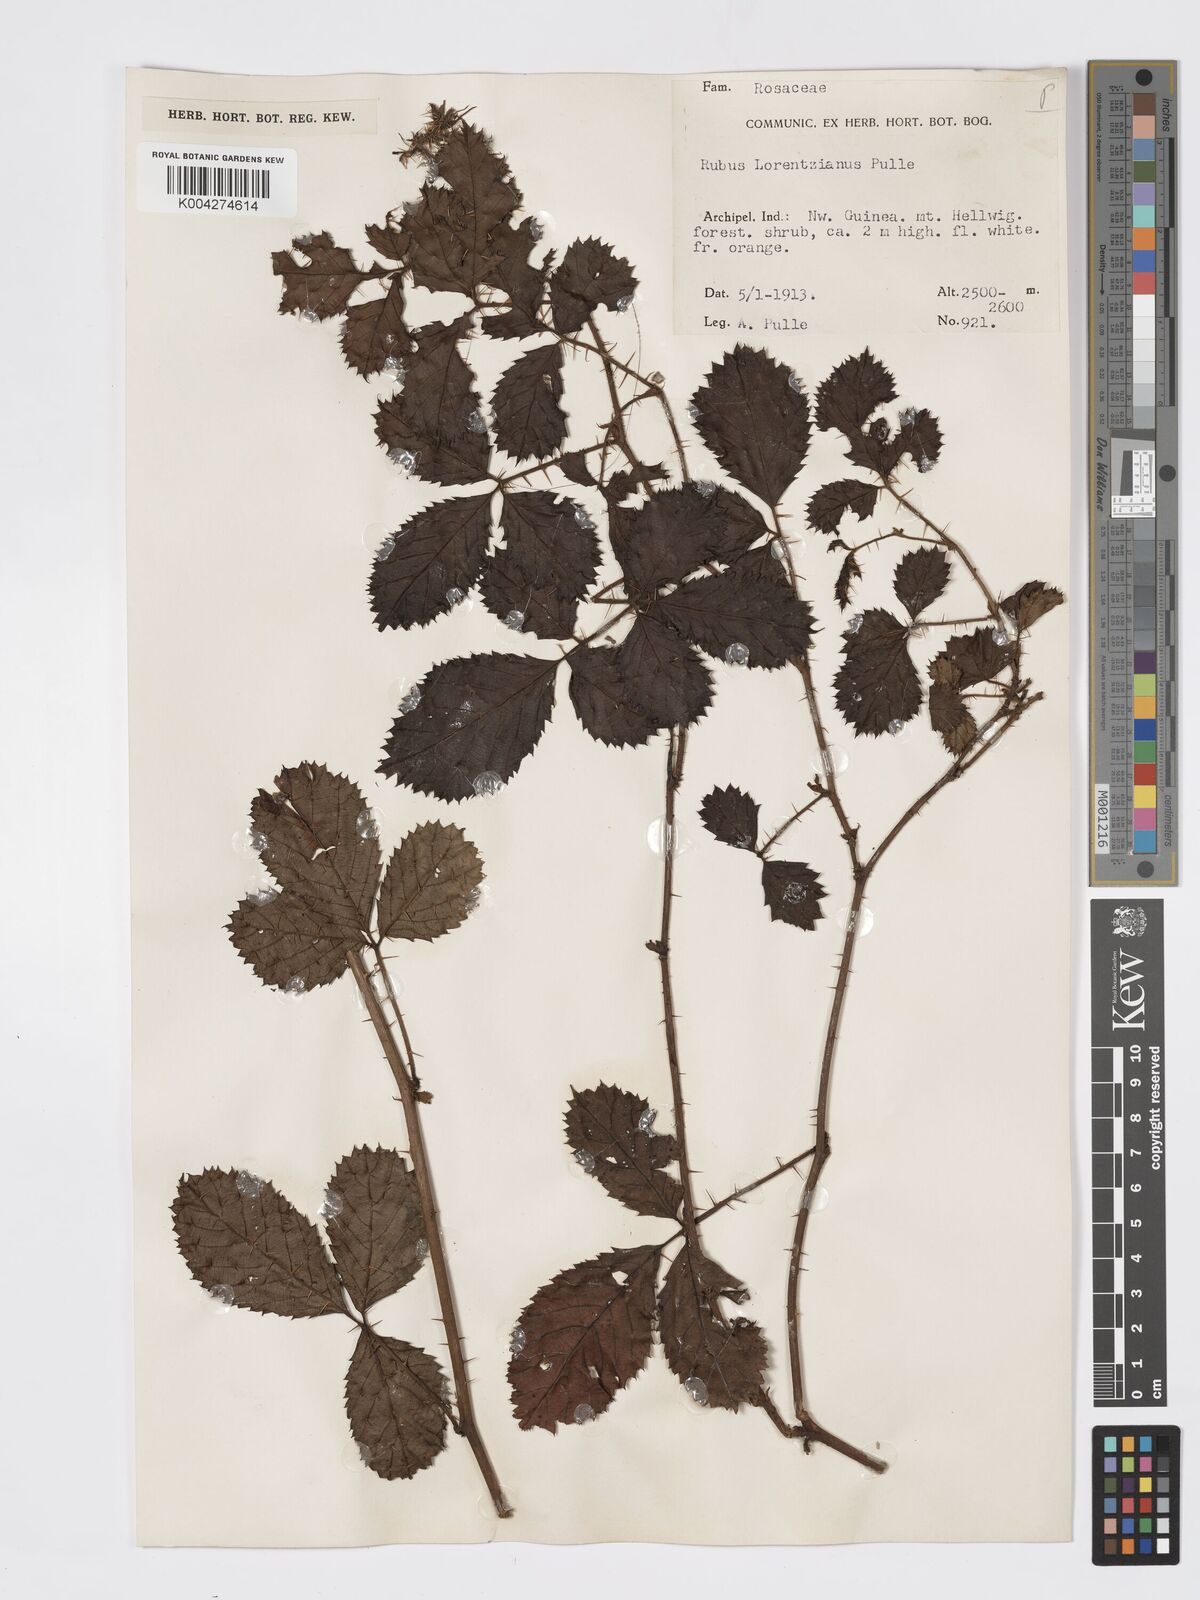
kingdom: Plantae
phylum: Tracheophyta
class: Magnoliopsida
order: Rosales
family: Rosaceae
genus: Rubus
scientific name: Rubus lorentzianus
